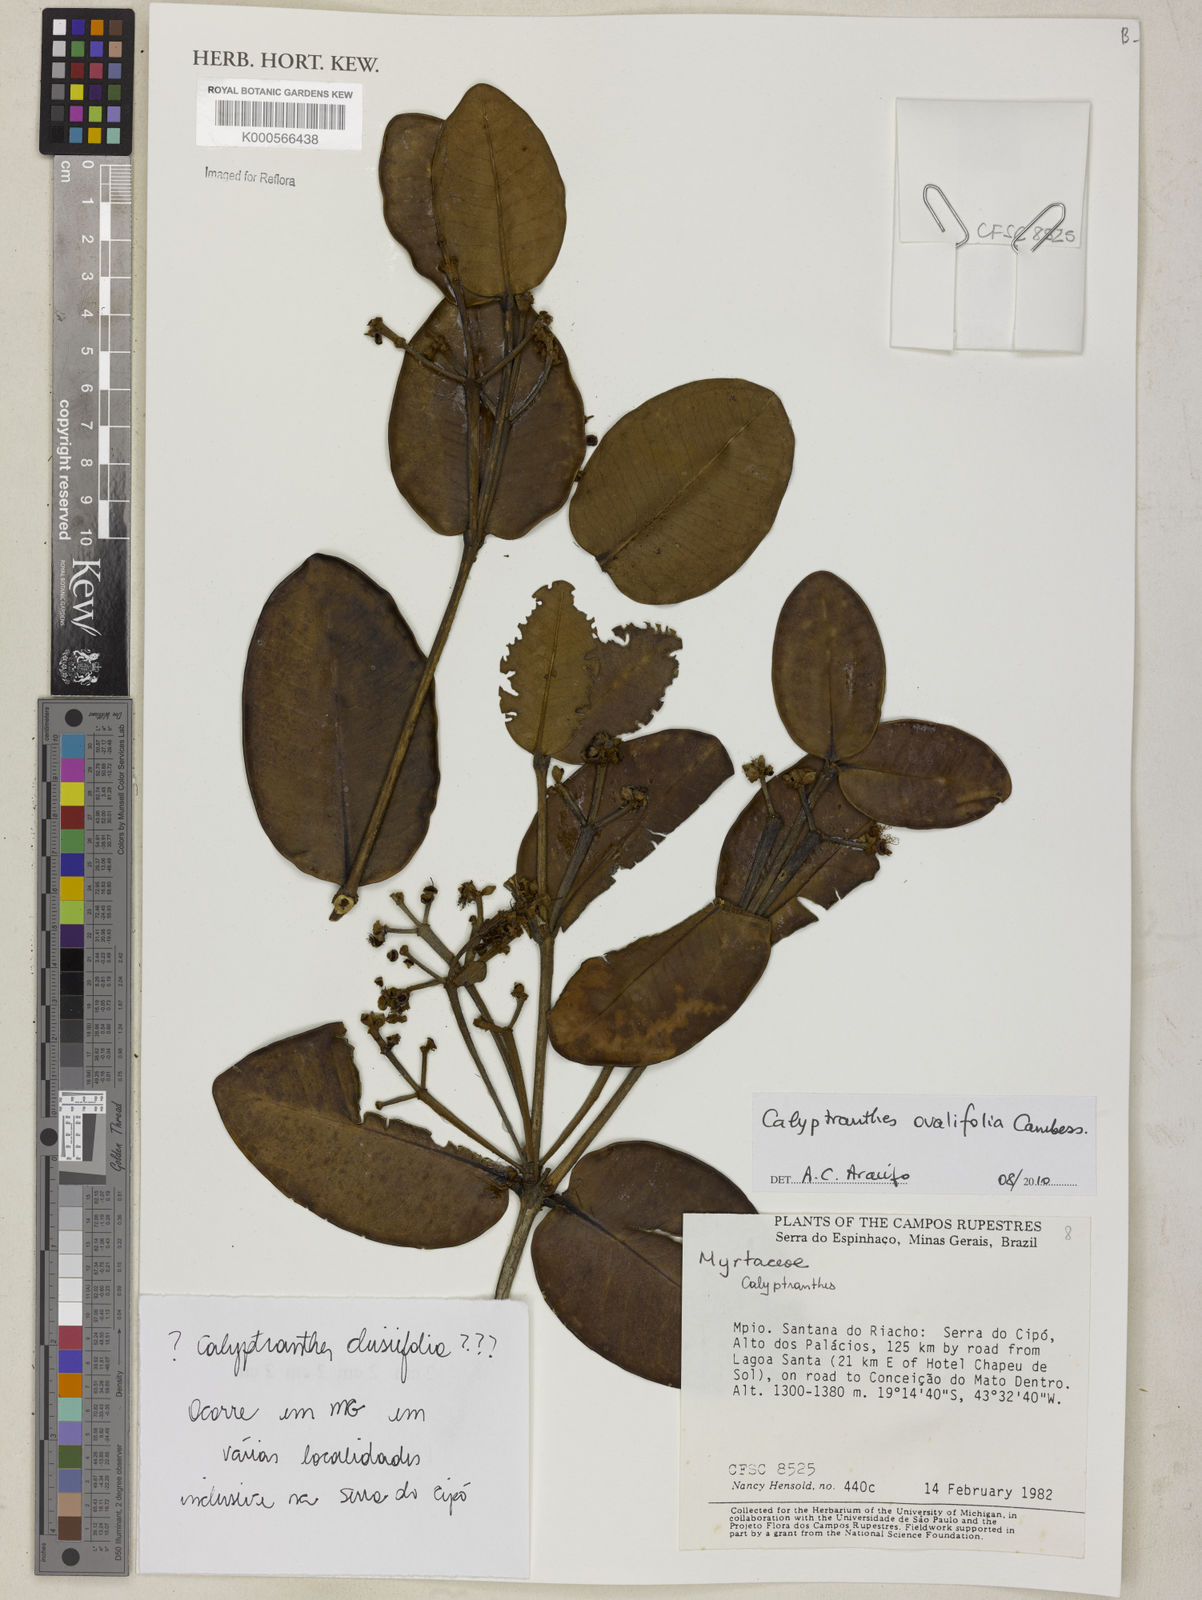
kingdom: Plantae
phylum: Tracheophyta
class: Magnoliopsida
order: Myrtales
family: Myrtaceae
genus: Calyptranthes
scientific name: Calyptranthes ovalifolia
